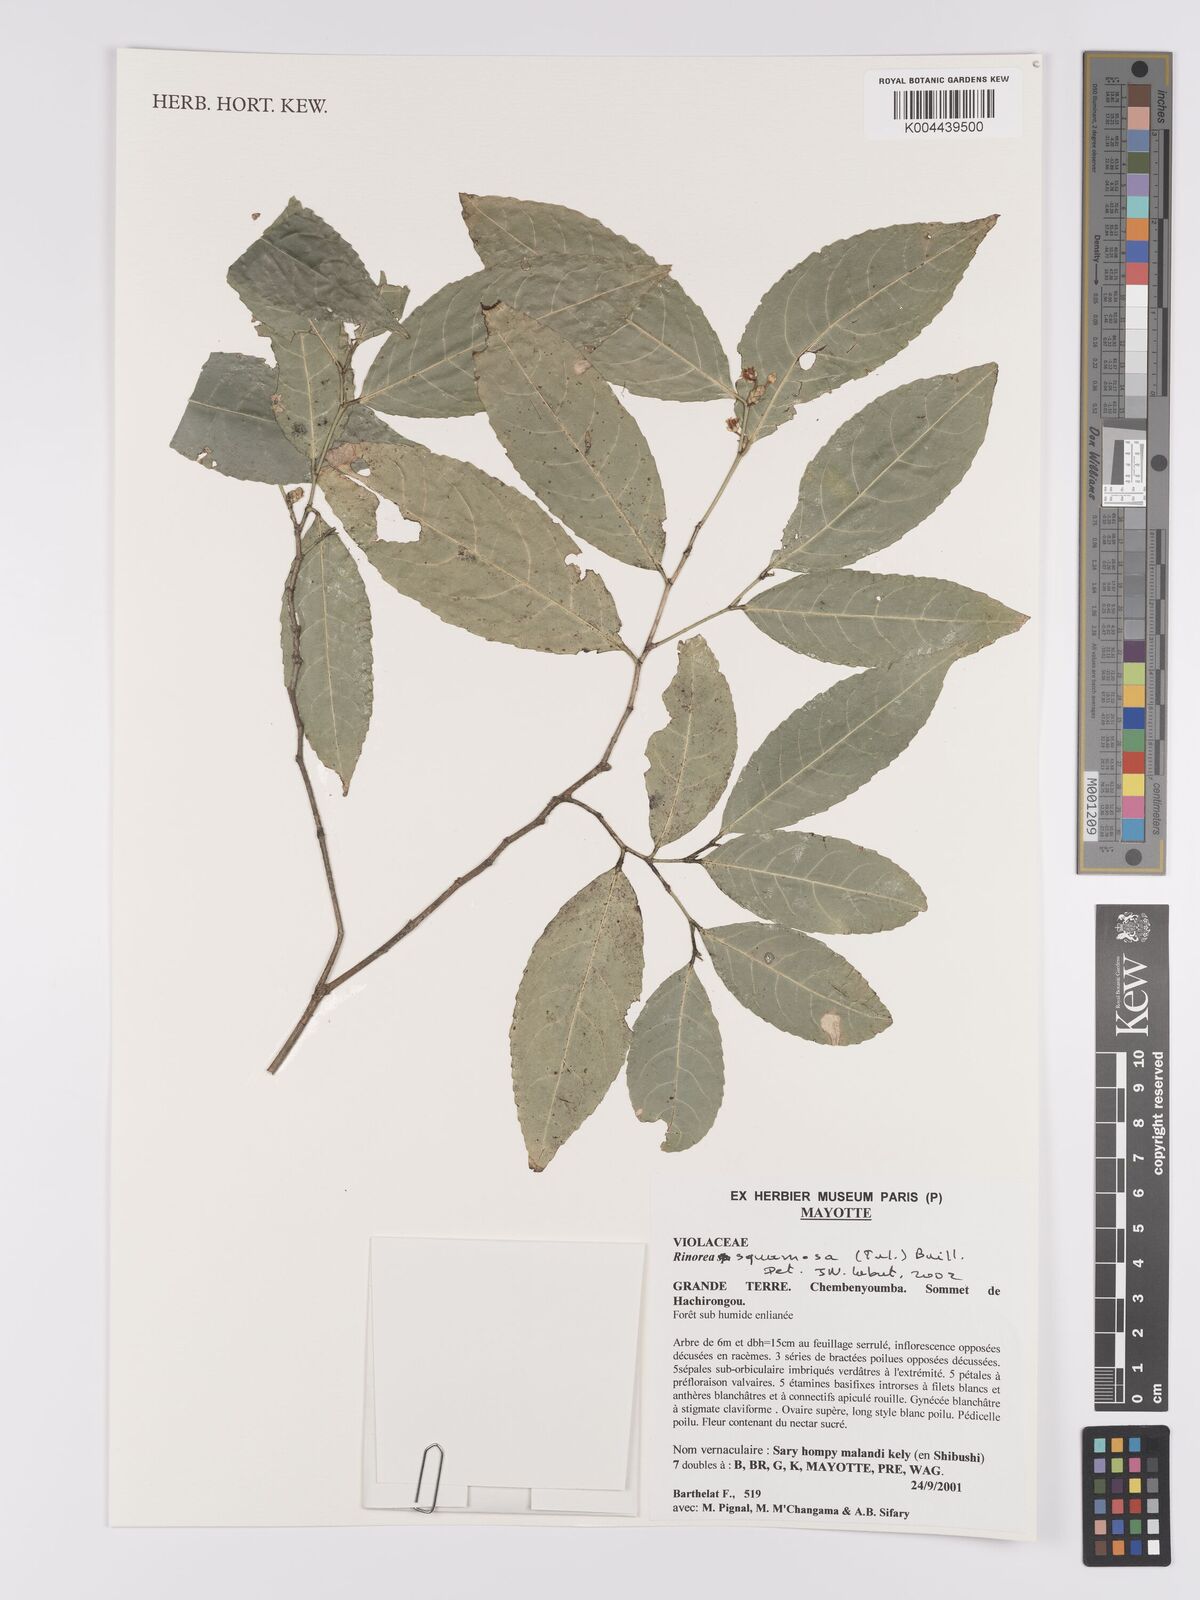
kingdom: Plantae
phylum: Tracheophyta
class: Magnoliopsida
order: Malpighiales
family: Violaceae
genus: Rinorea
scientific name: Rinorea squamosa
